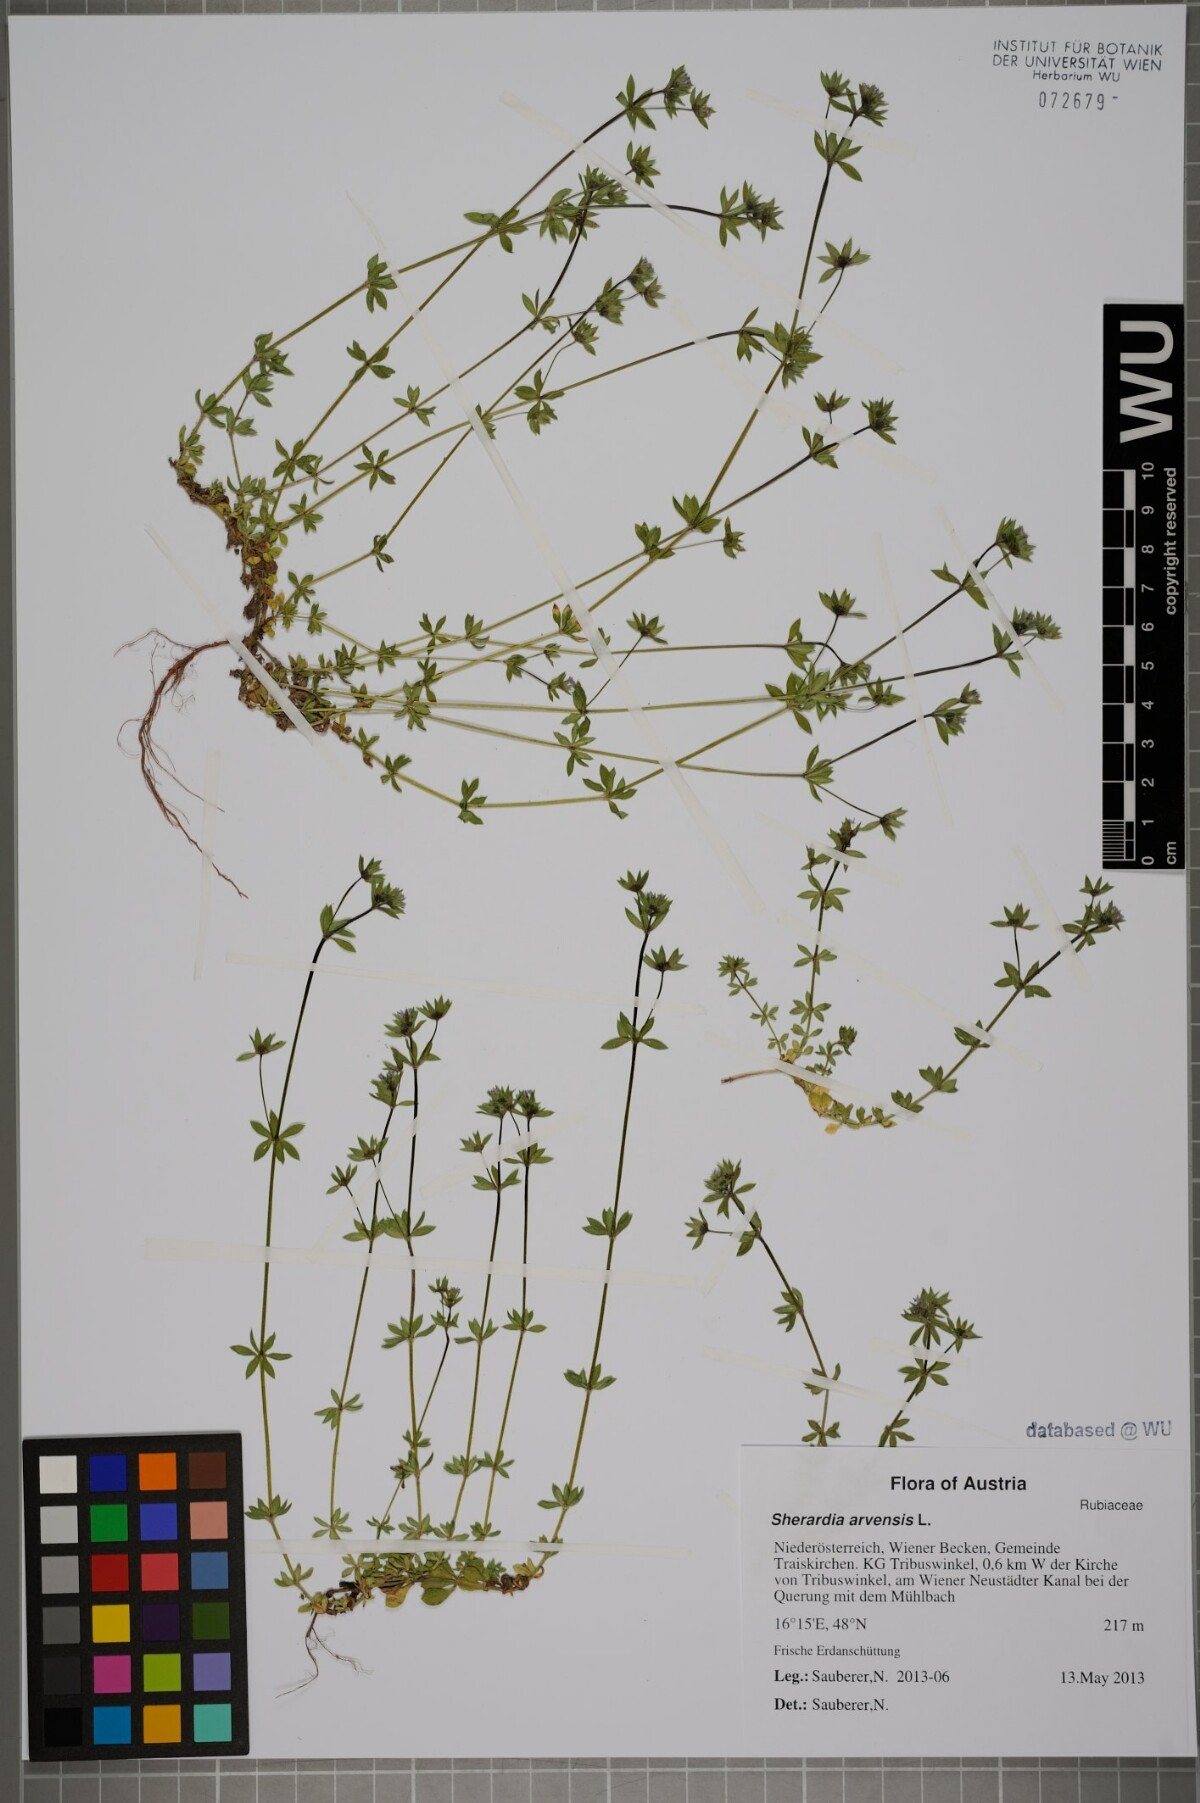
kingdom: Plantae
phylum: Tracheophyta
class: Magnoliopsida
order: Gentianales
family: Rubiaceae
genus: Sherardia
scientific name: Sherardia arvensis
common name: Field madder
